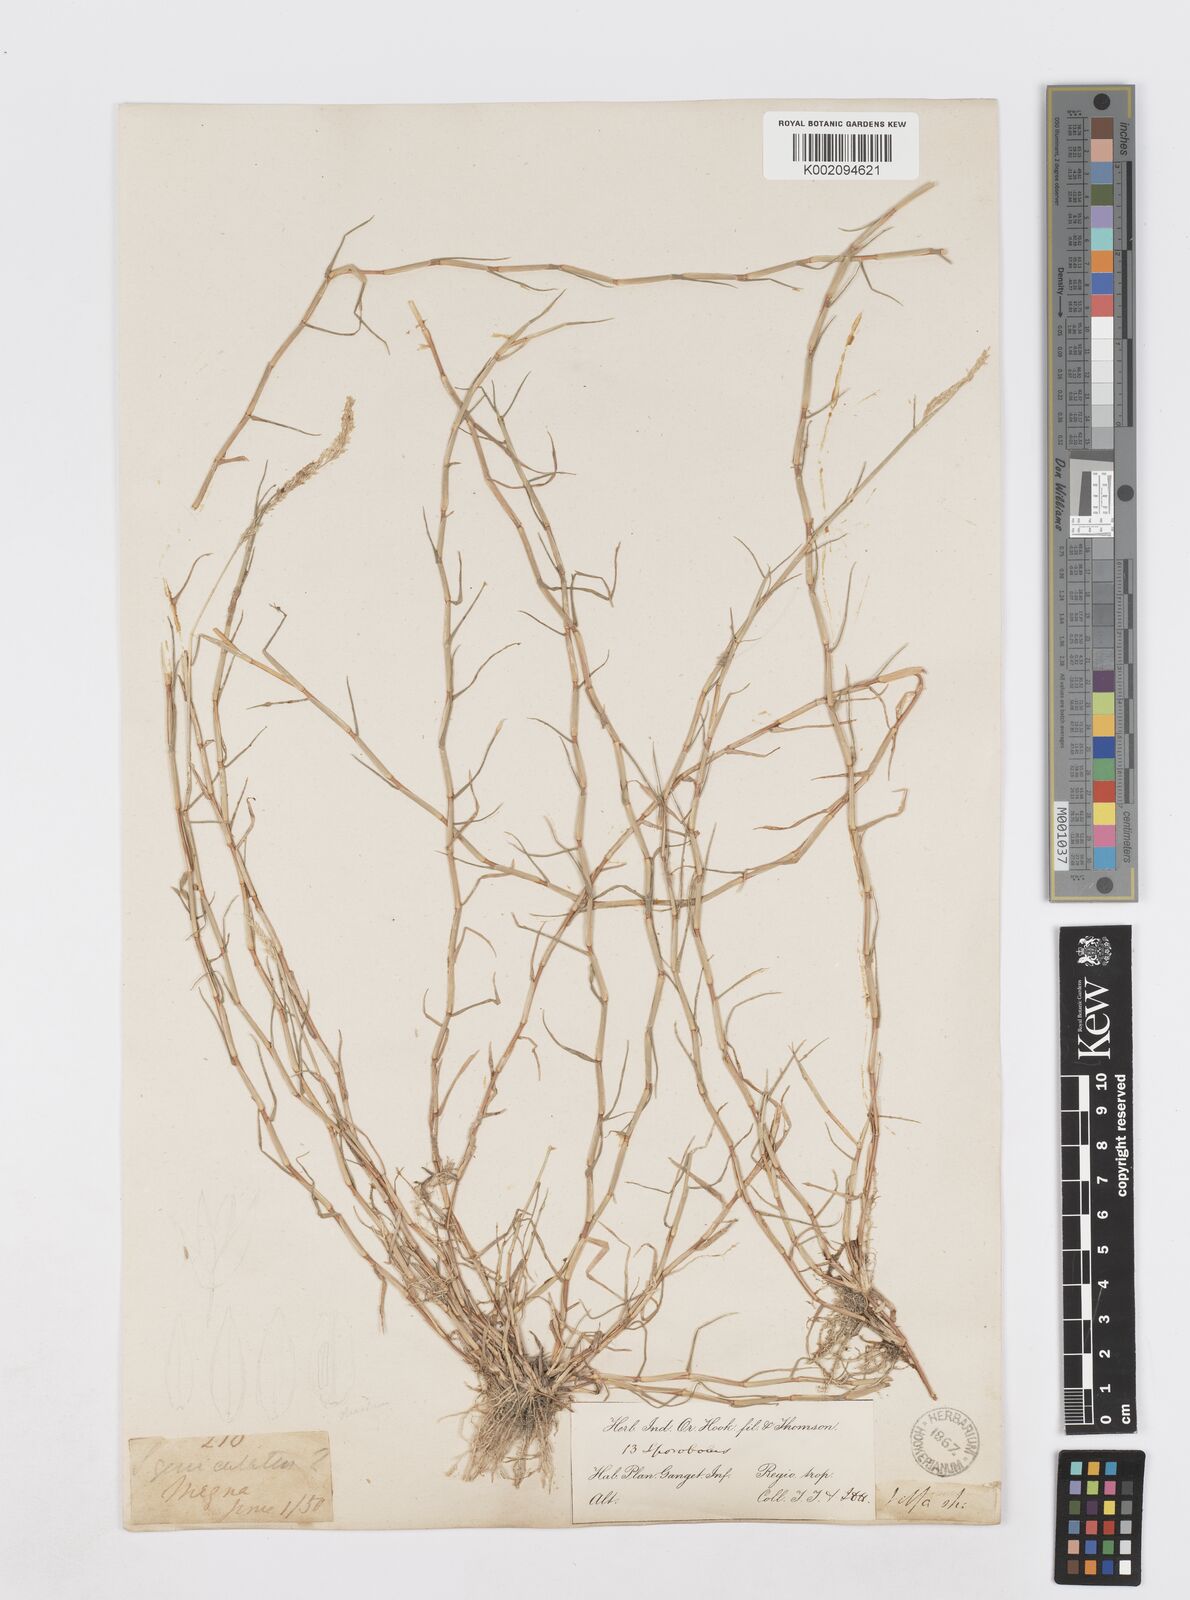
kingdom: Plantae
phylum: Tracheophyta
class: Liliopsida
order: Poales
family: Poaceae
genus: Sporobolus
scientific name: Sporobolus virginicus
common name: Beach dropseed
